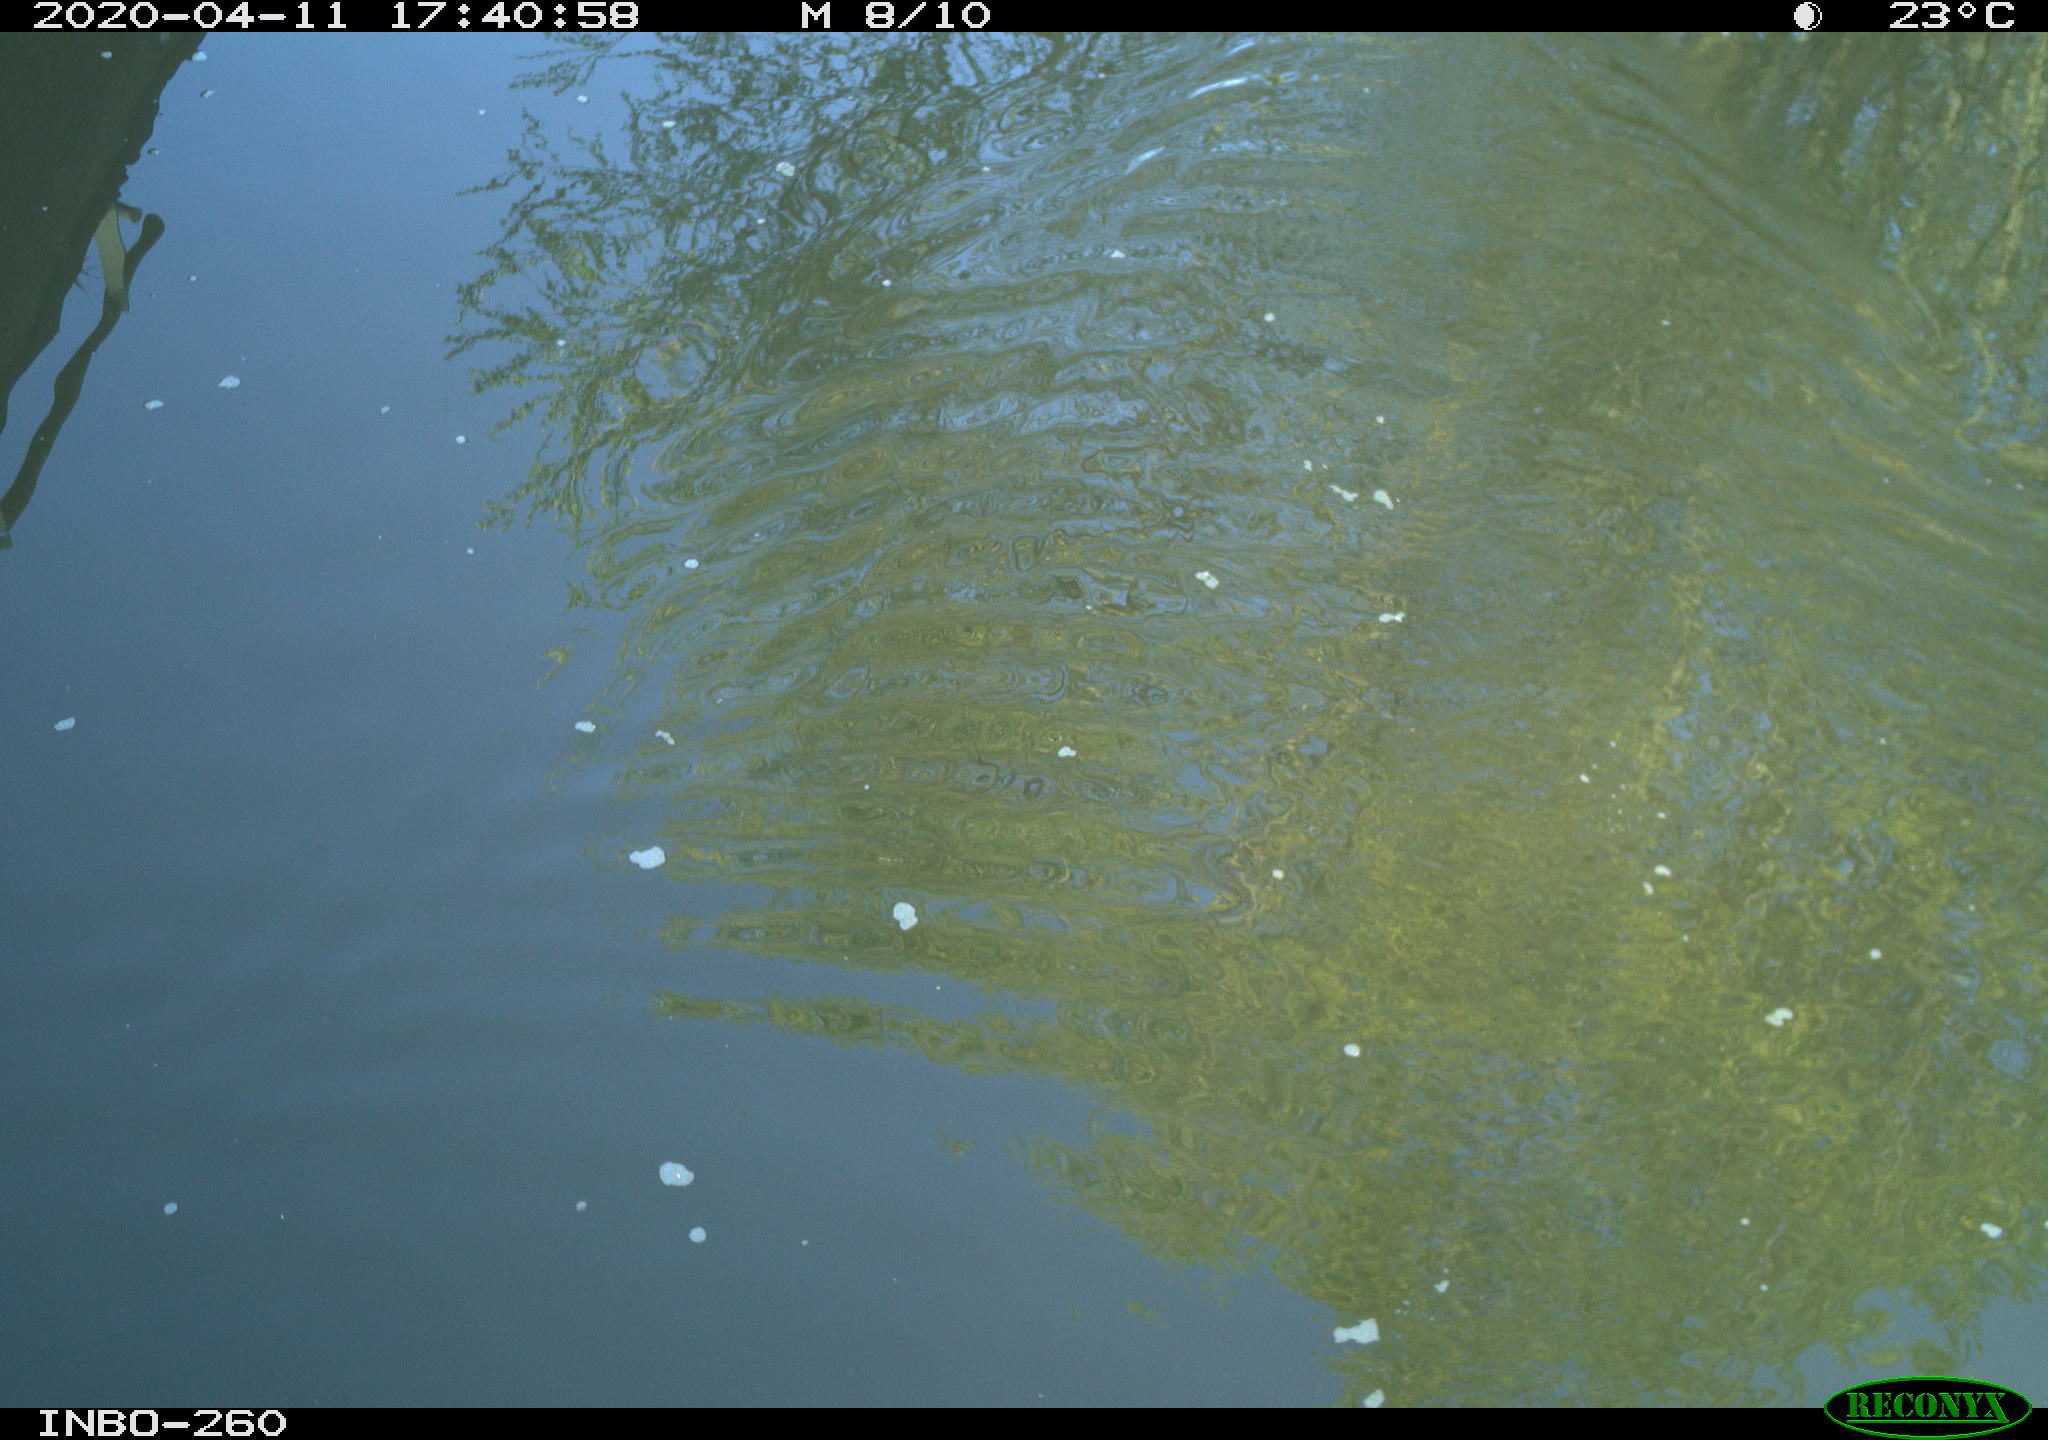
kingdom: Animalia
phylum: Chordata
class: Aves
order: Anseriformes
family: Anatidae
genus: Anas
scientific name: Anas platyrhynchos
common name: Mallard
